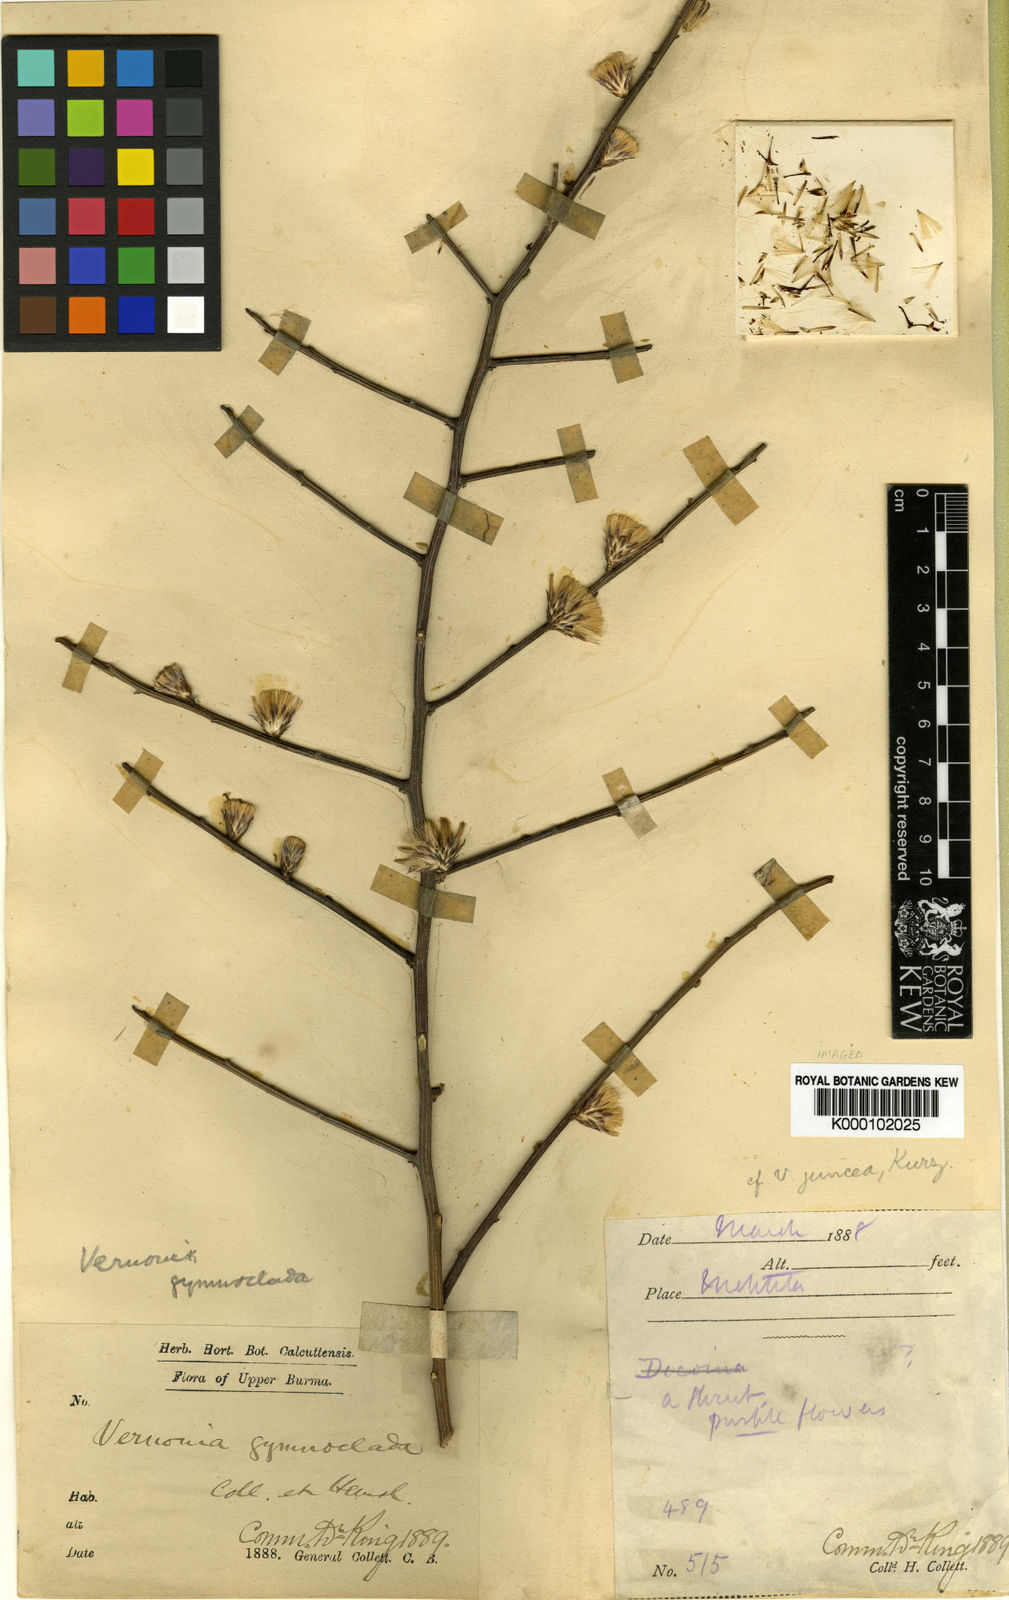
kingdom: Plantae
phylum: Tracheophyta
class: Magnoliopsida
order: Asterales
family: Asteraceae
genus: Kurziella
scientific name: Kurziella gymnoclada
